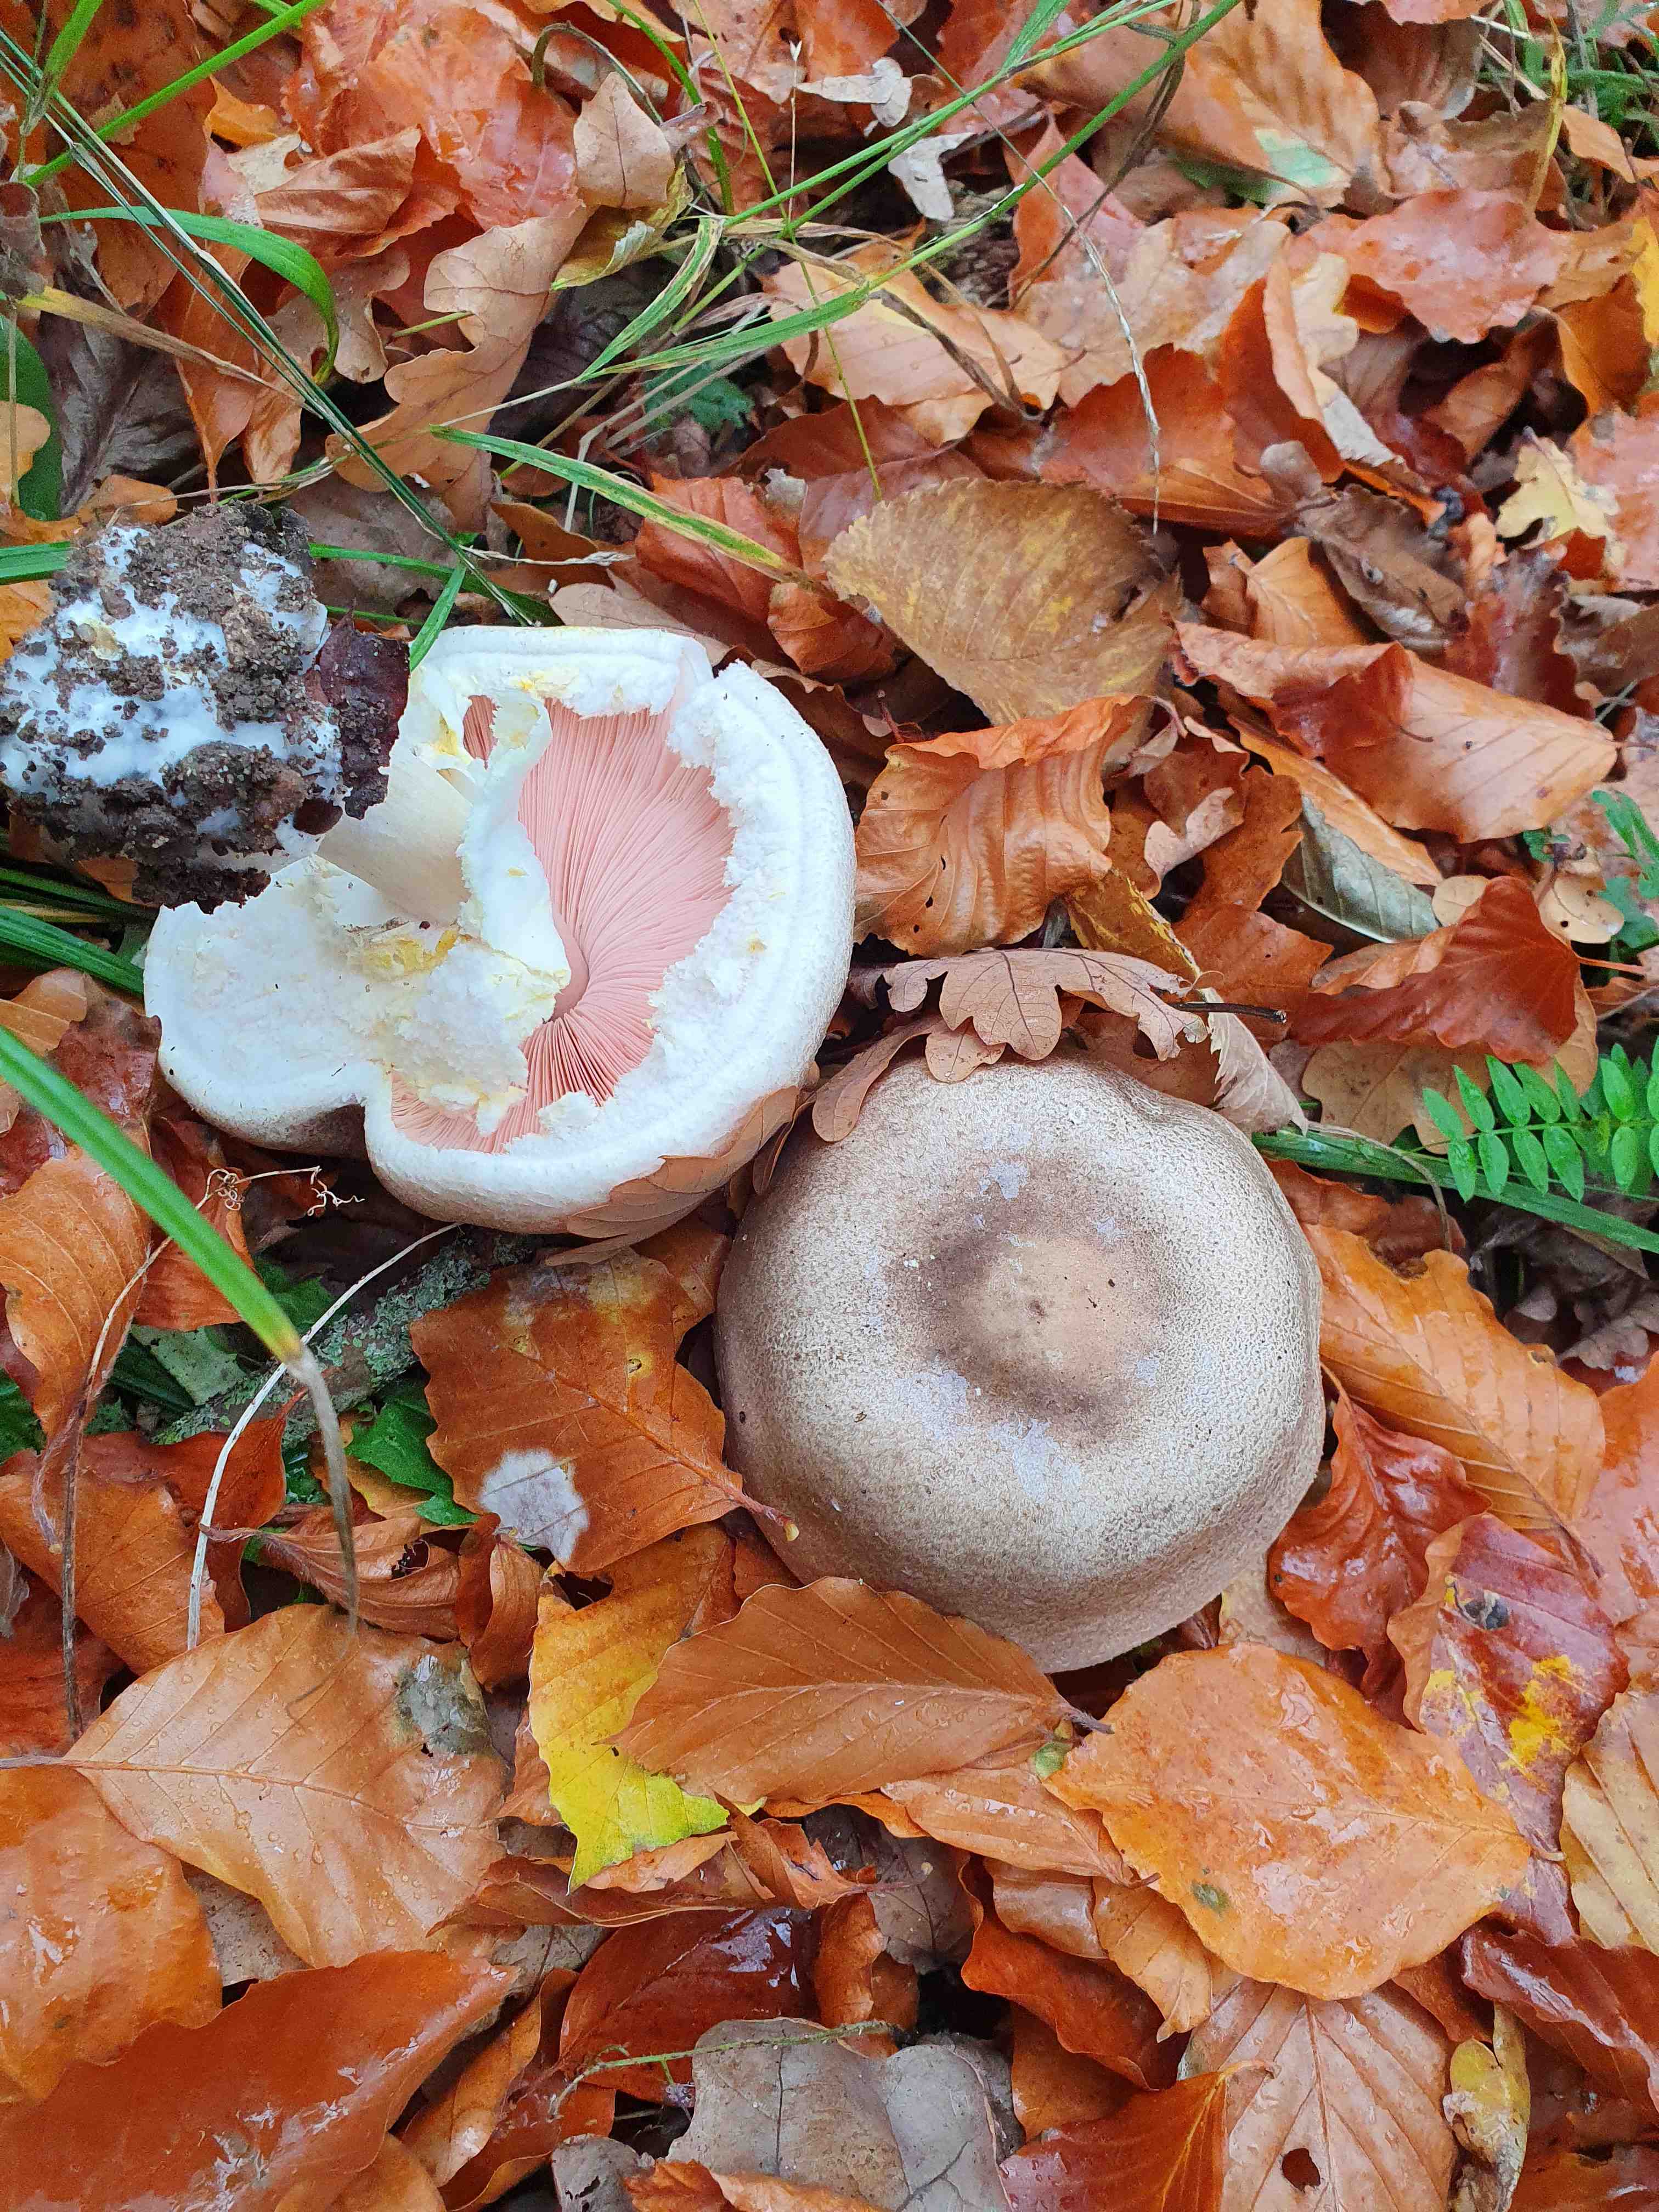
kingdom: Fungi
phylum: Basidiomycota
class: Agaricomycetes
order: Agaricales
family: Agaricaceae
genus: Agaricus
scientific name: Agaricus moelleri
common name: perlehøne-champignon
